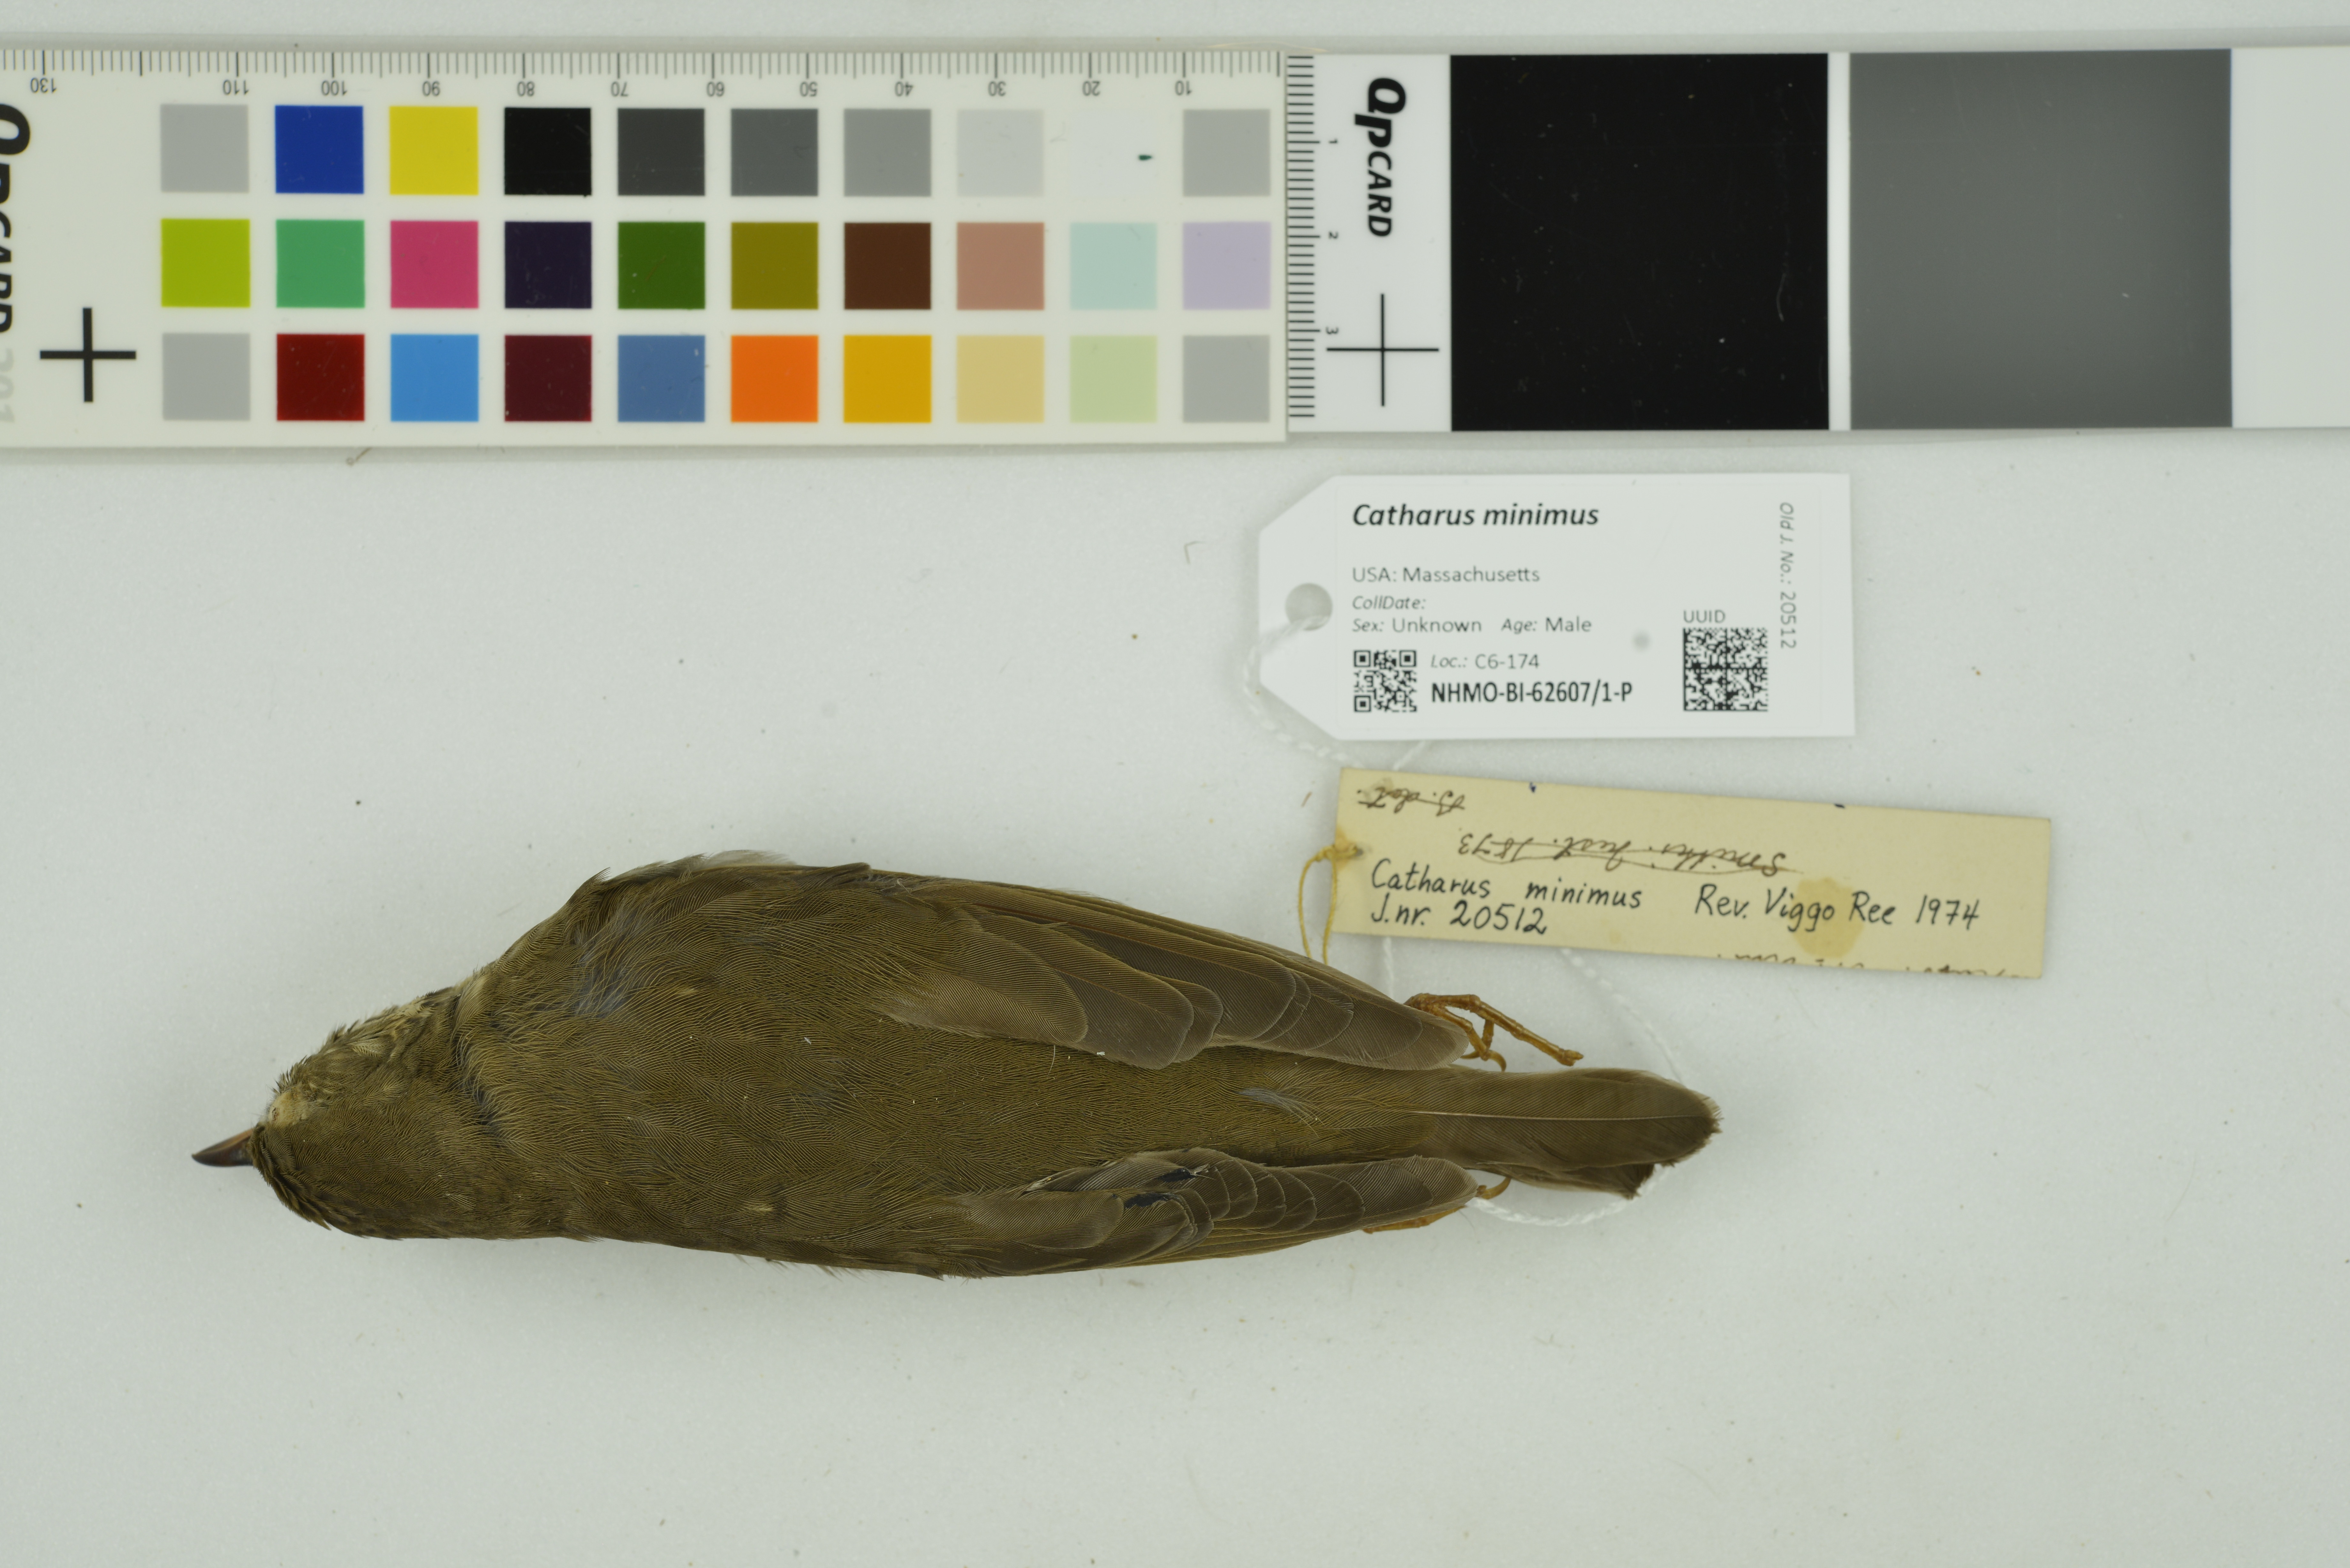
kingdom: Animalia
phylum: Chordata
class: Aves
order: Passeriformes
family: Turdidae
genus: Catharus
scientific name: Catharus minimus
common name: Grey-cheeked thrush
